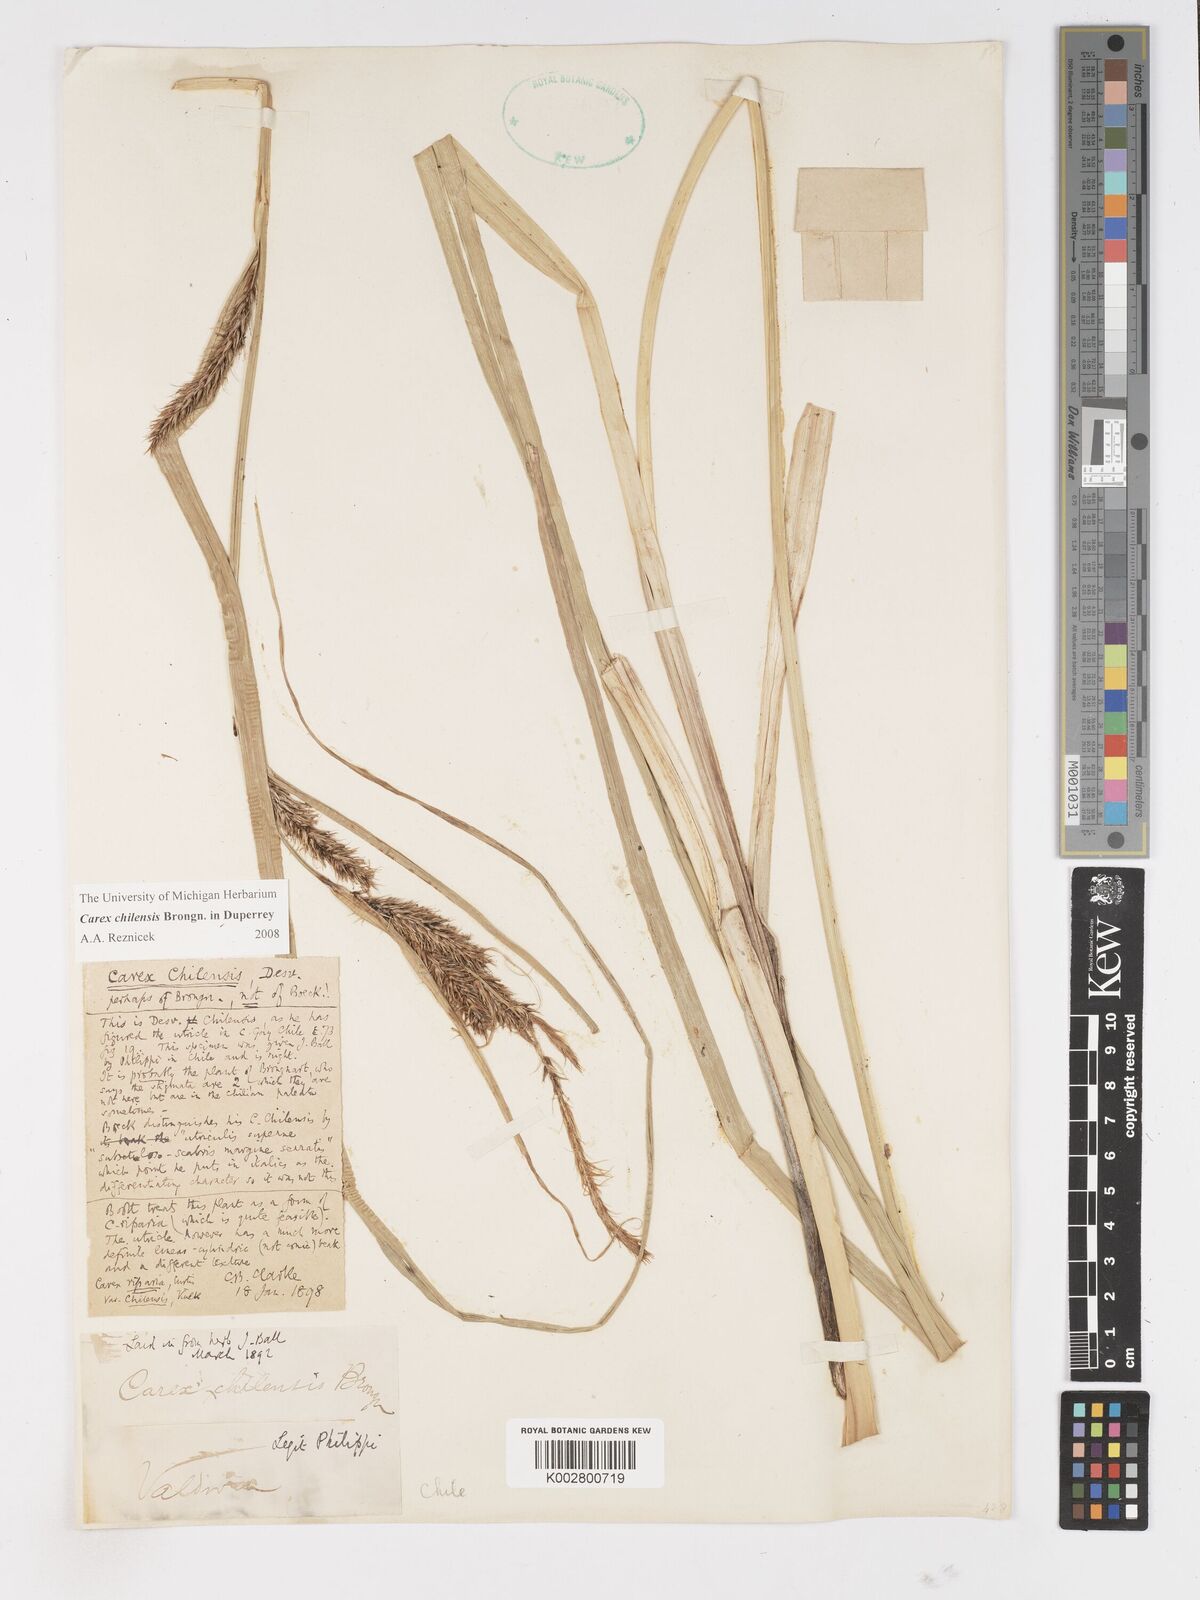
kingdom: Plantae
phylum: Tracheophyta
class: Liliopsida
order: Poales
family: Cyperaceae
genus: Carex
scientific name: Carex chilensis
